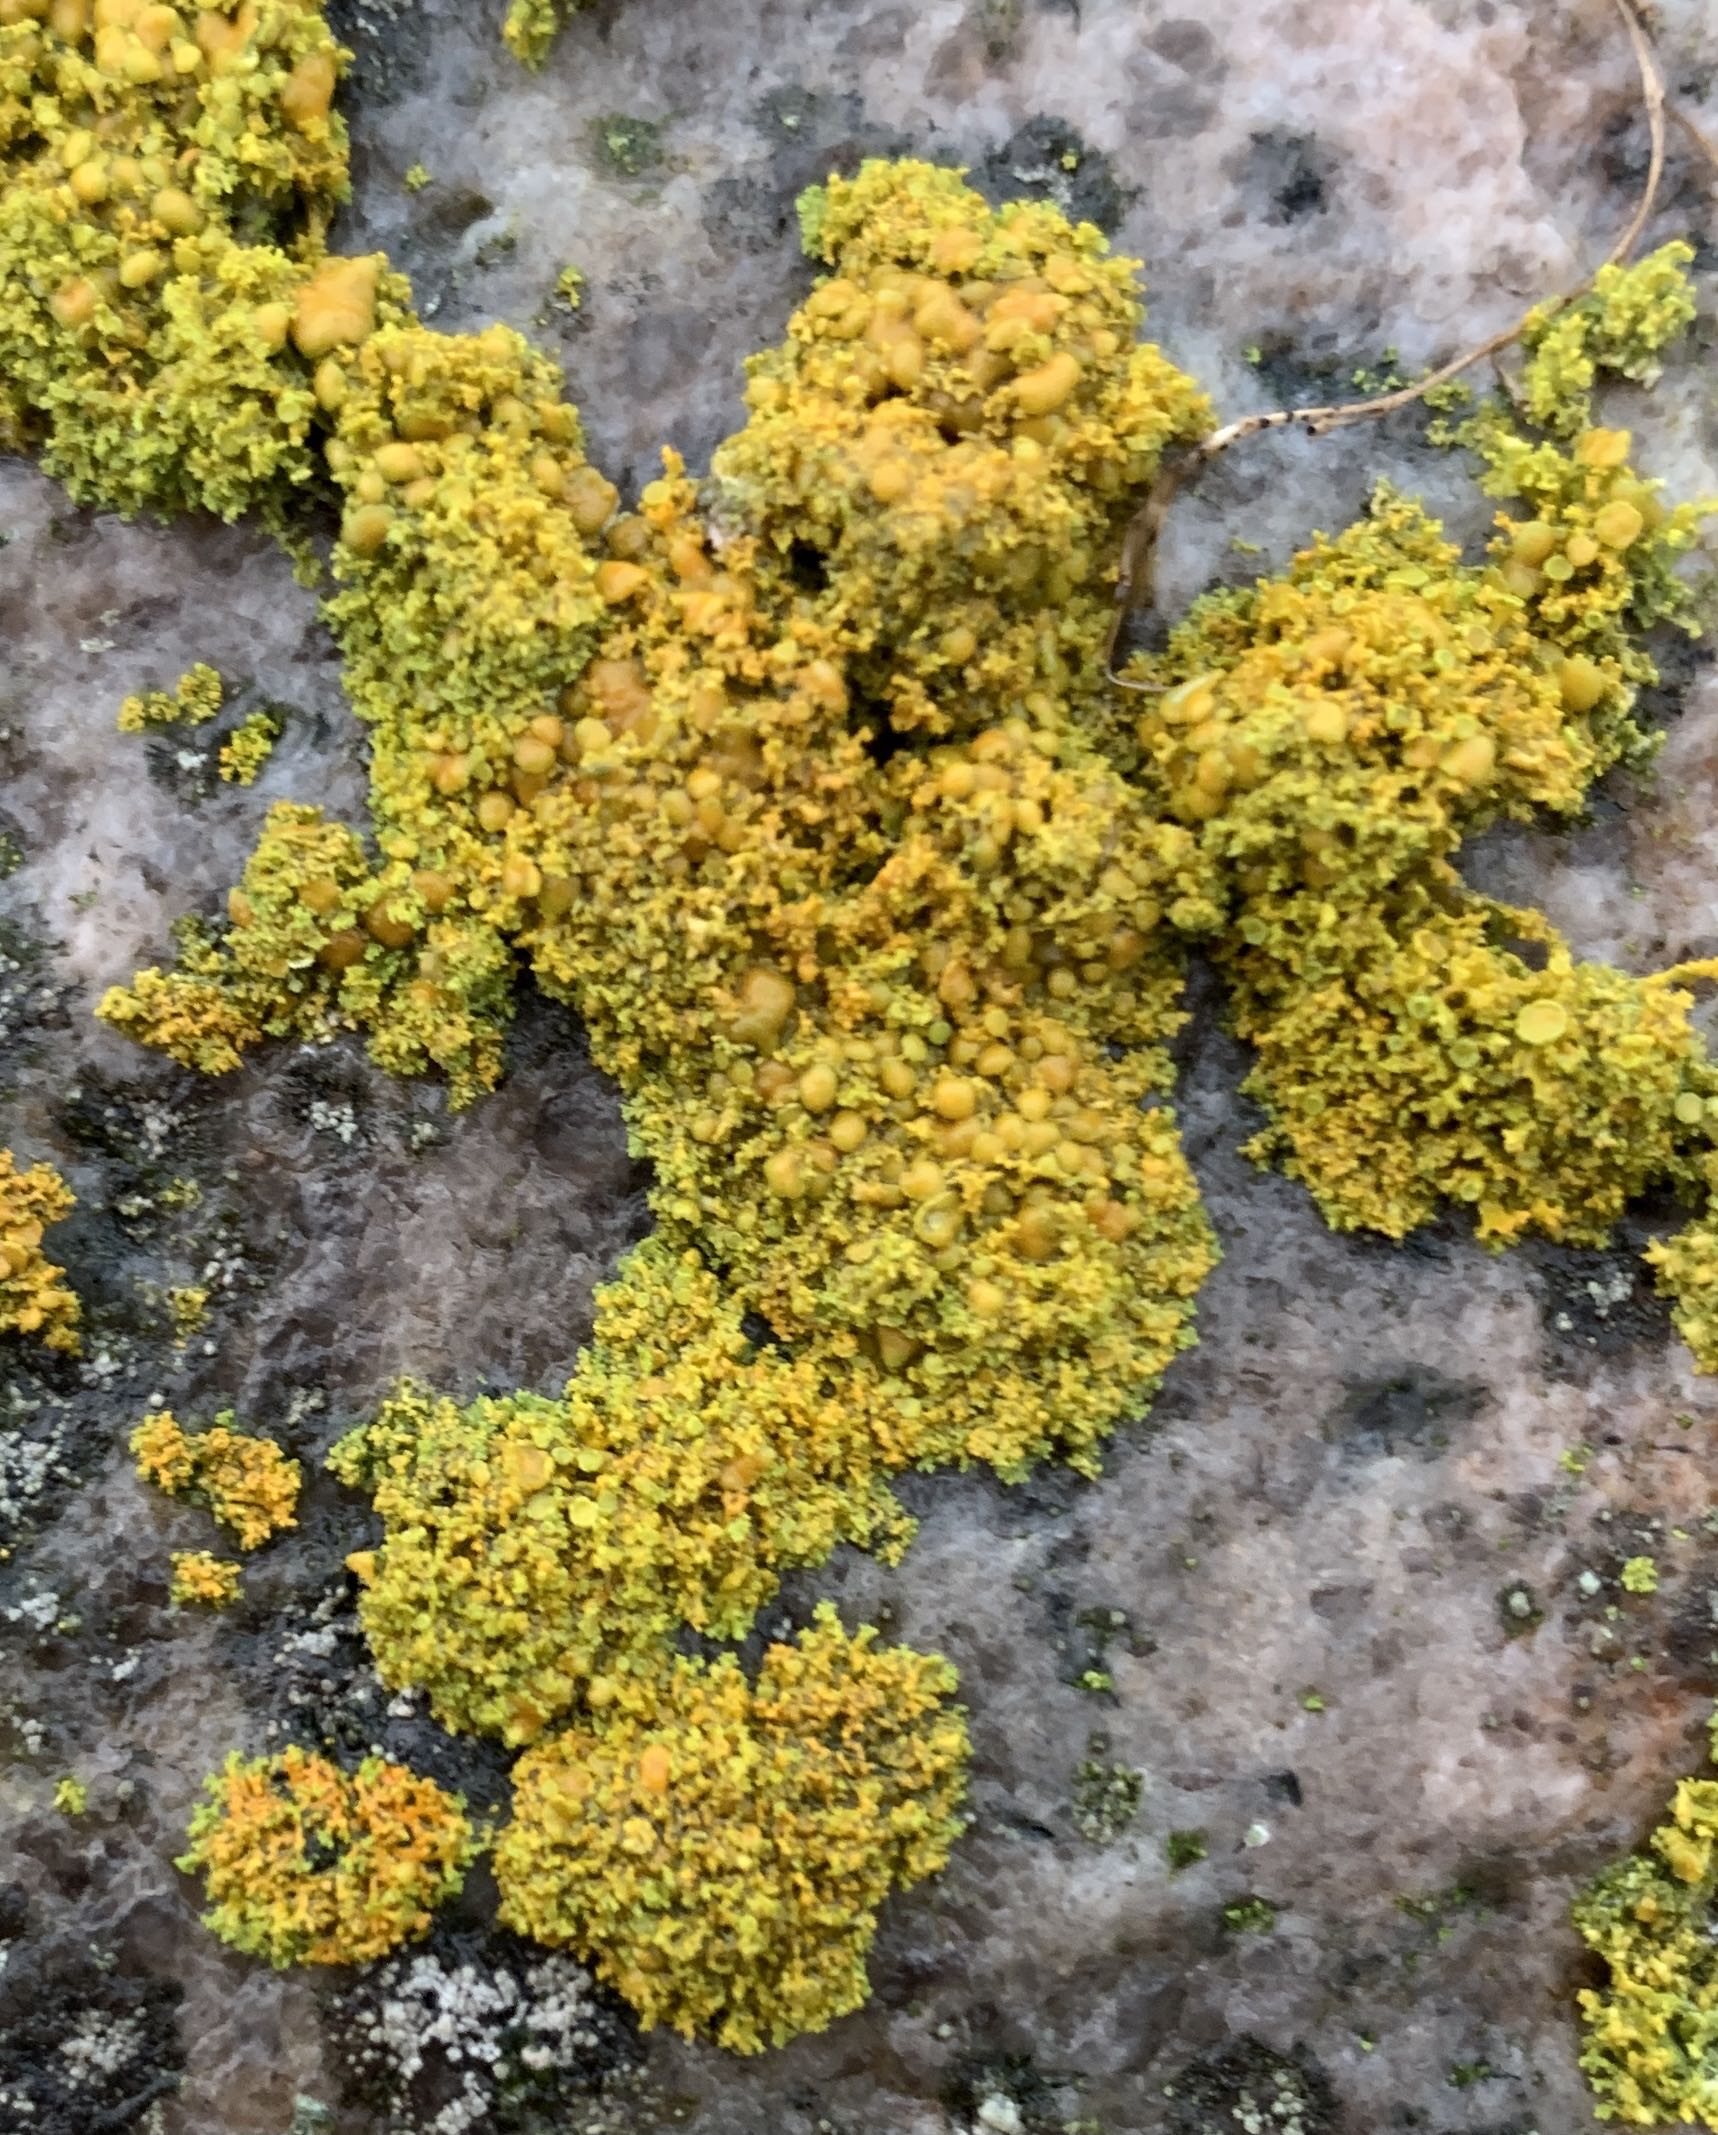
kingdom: Fungi
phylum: Ascomycota
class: Lecanoromycetes
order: Teloschistales
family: Teloschistaceae
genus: Polycauliona
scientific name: Polycauliona candelaria
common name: tue-orangelav
